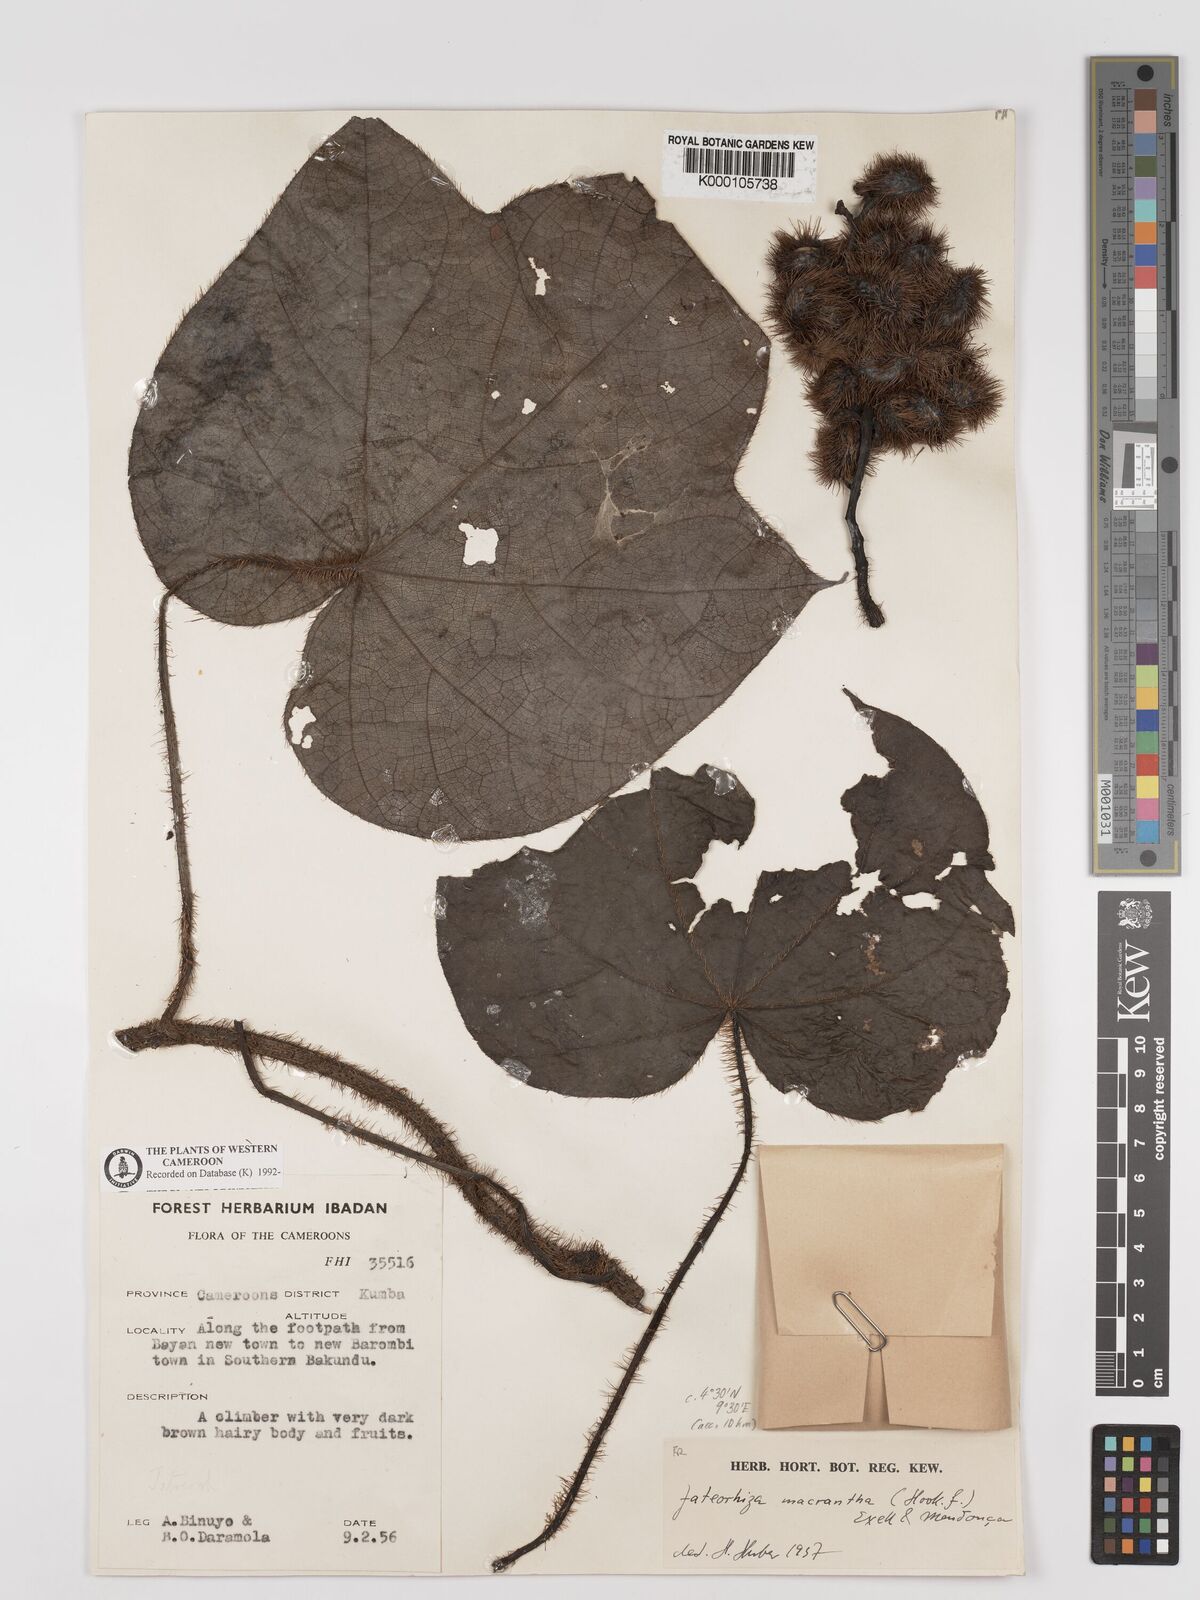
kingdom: Plantae
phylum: Tracheophyta
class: Magnoliopsida
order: Ranunculales
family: Menispermaceae
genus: Jateorhiza
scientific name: Jateorhiza
